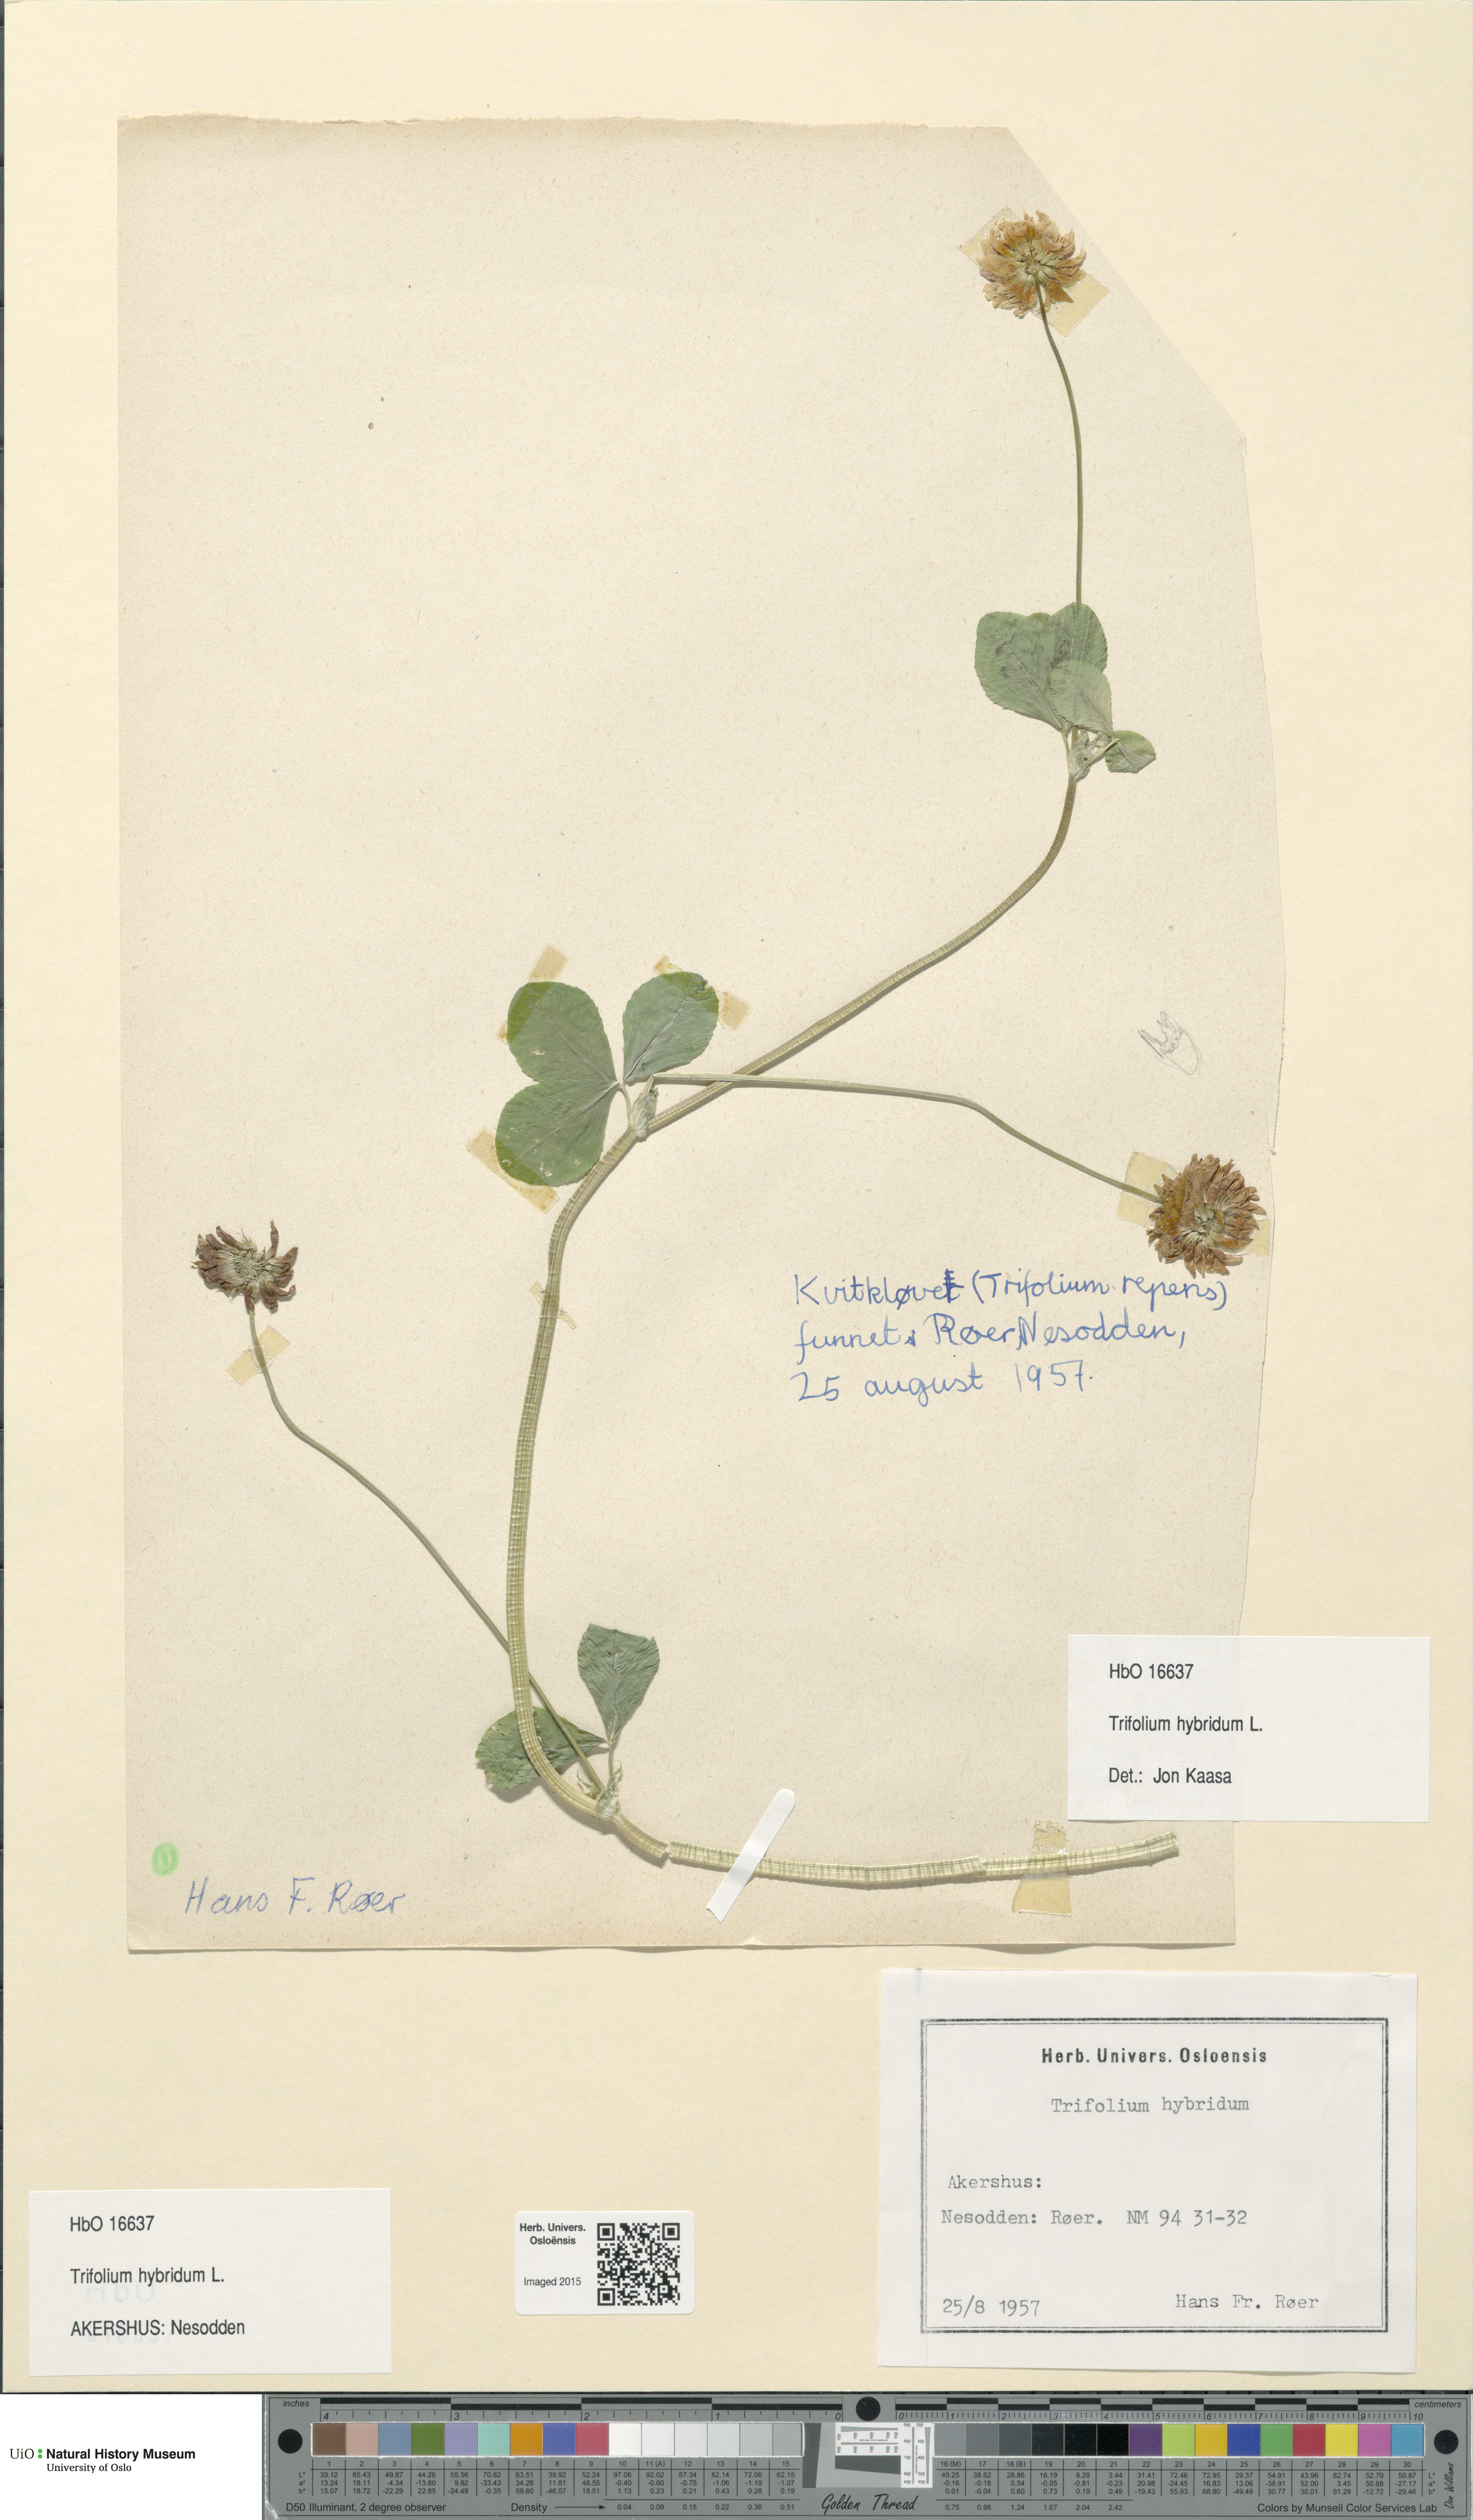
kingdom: Plantae
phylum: Tracheophyta
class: Magnoliopsida
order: Fabales
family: Fabaceae
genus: Trifolium
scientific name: Trifolium hybridum
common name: Alsike clover
